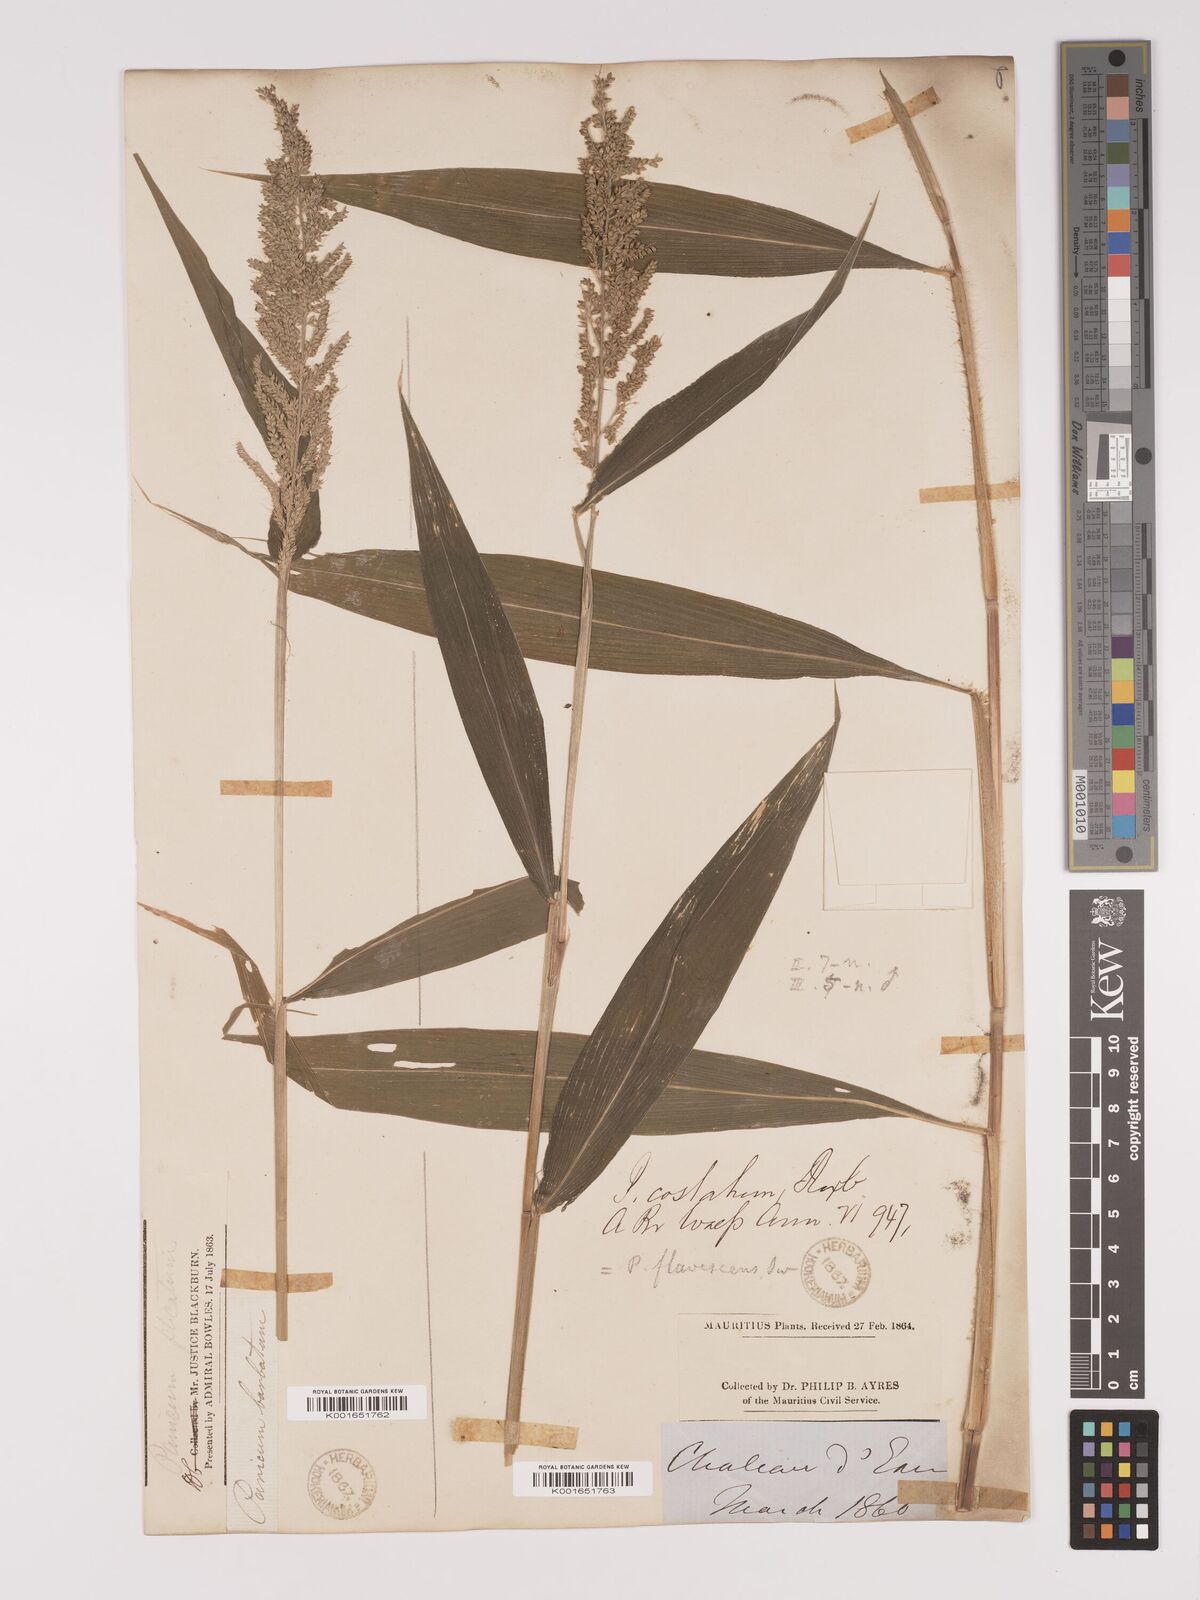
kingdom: Plantae
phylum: Tracheophyta
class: Liliopsida
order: Poales
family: Poaceae
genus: Setaria
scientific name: Setaria barbata
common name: East indian bristlegrass
